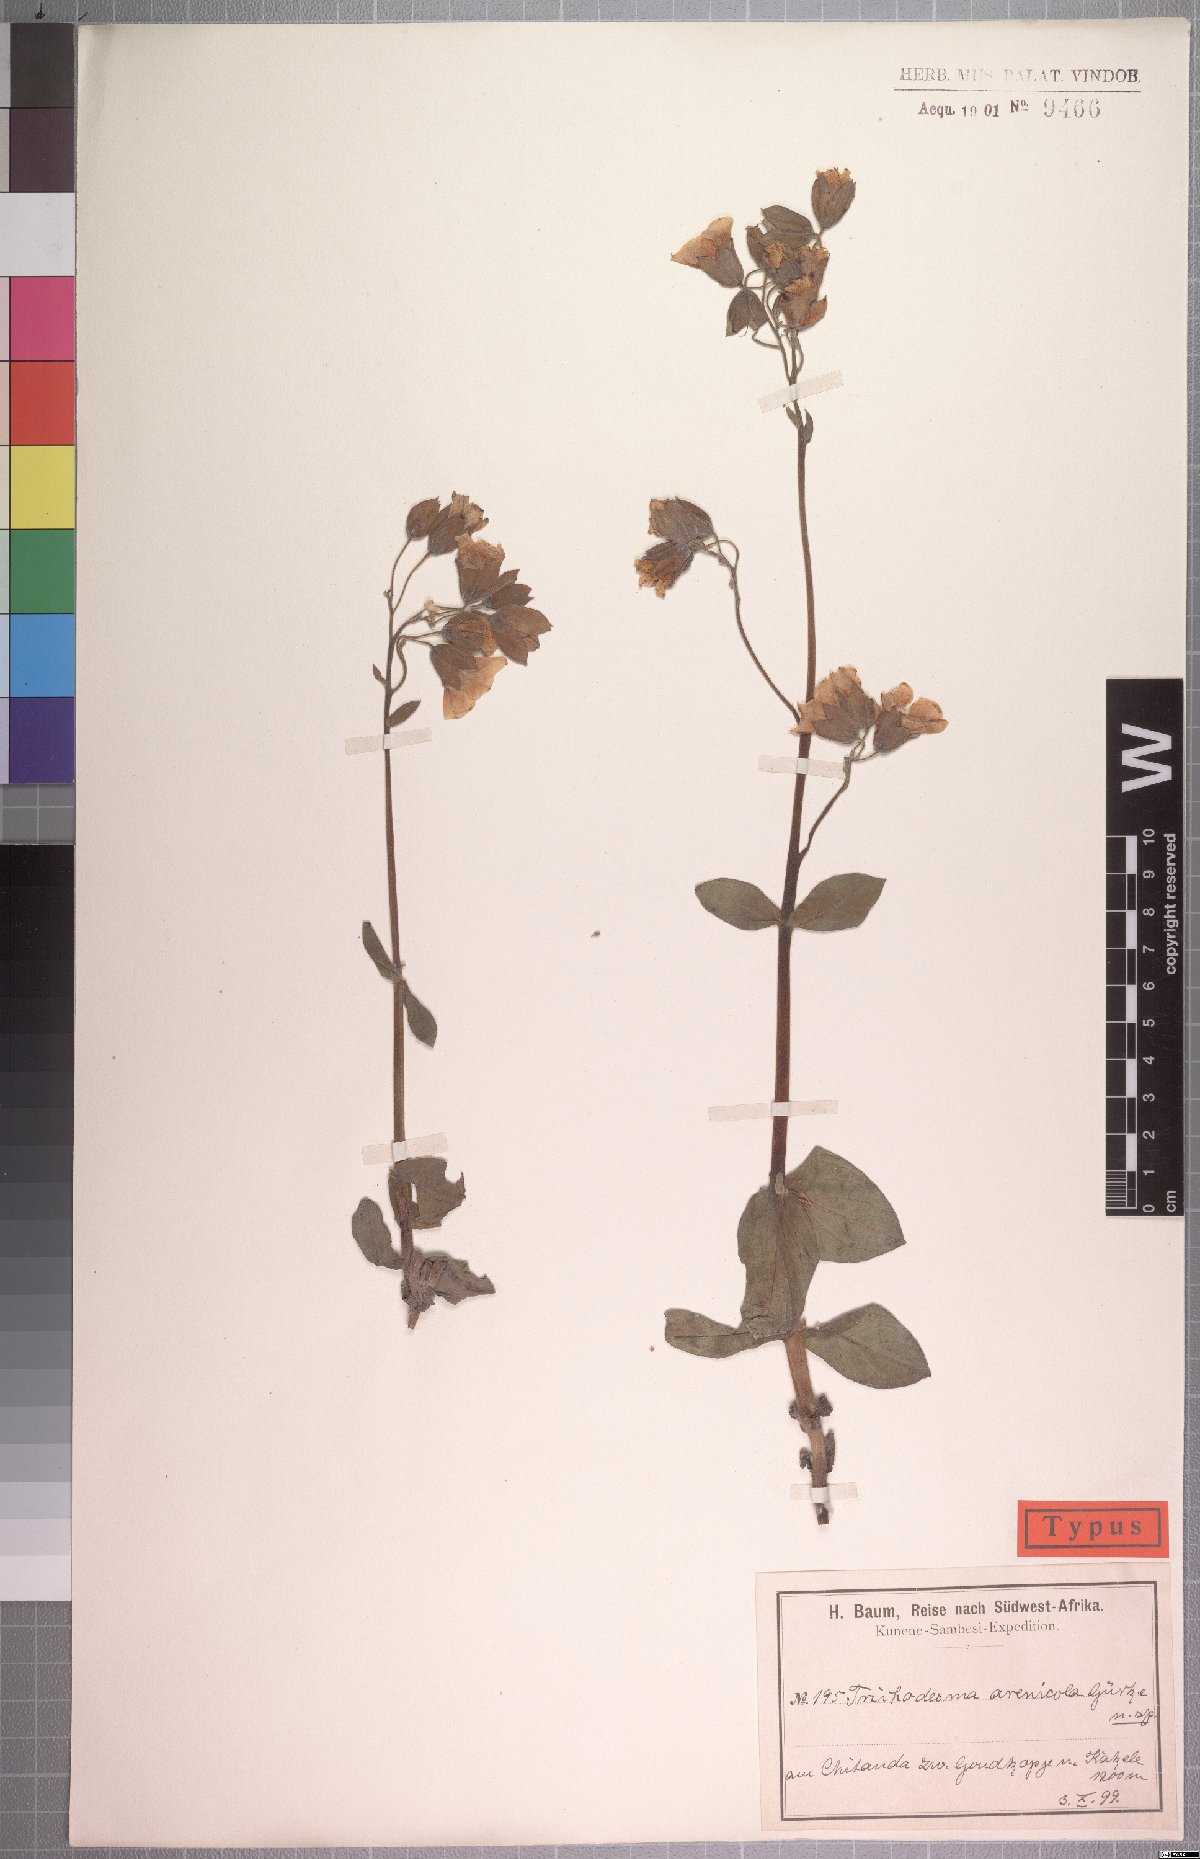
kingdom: Plantae
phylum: Tracheophyta
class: Magnoliopsida
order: Boraginales
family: Boraginaceae
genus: Trichodesma
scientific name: Trichodesma arenicola
